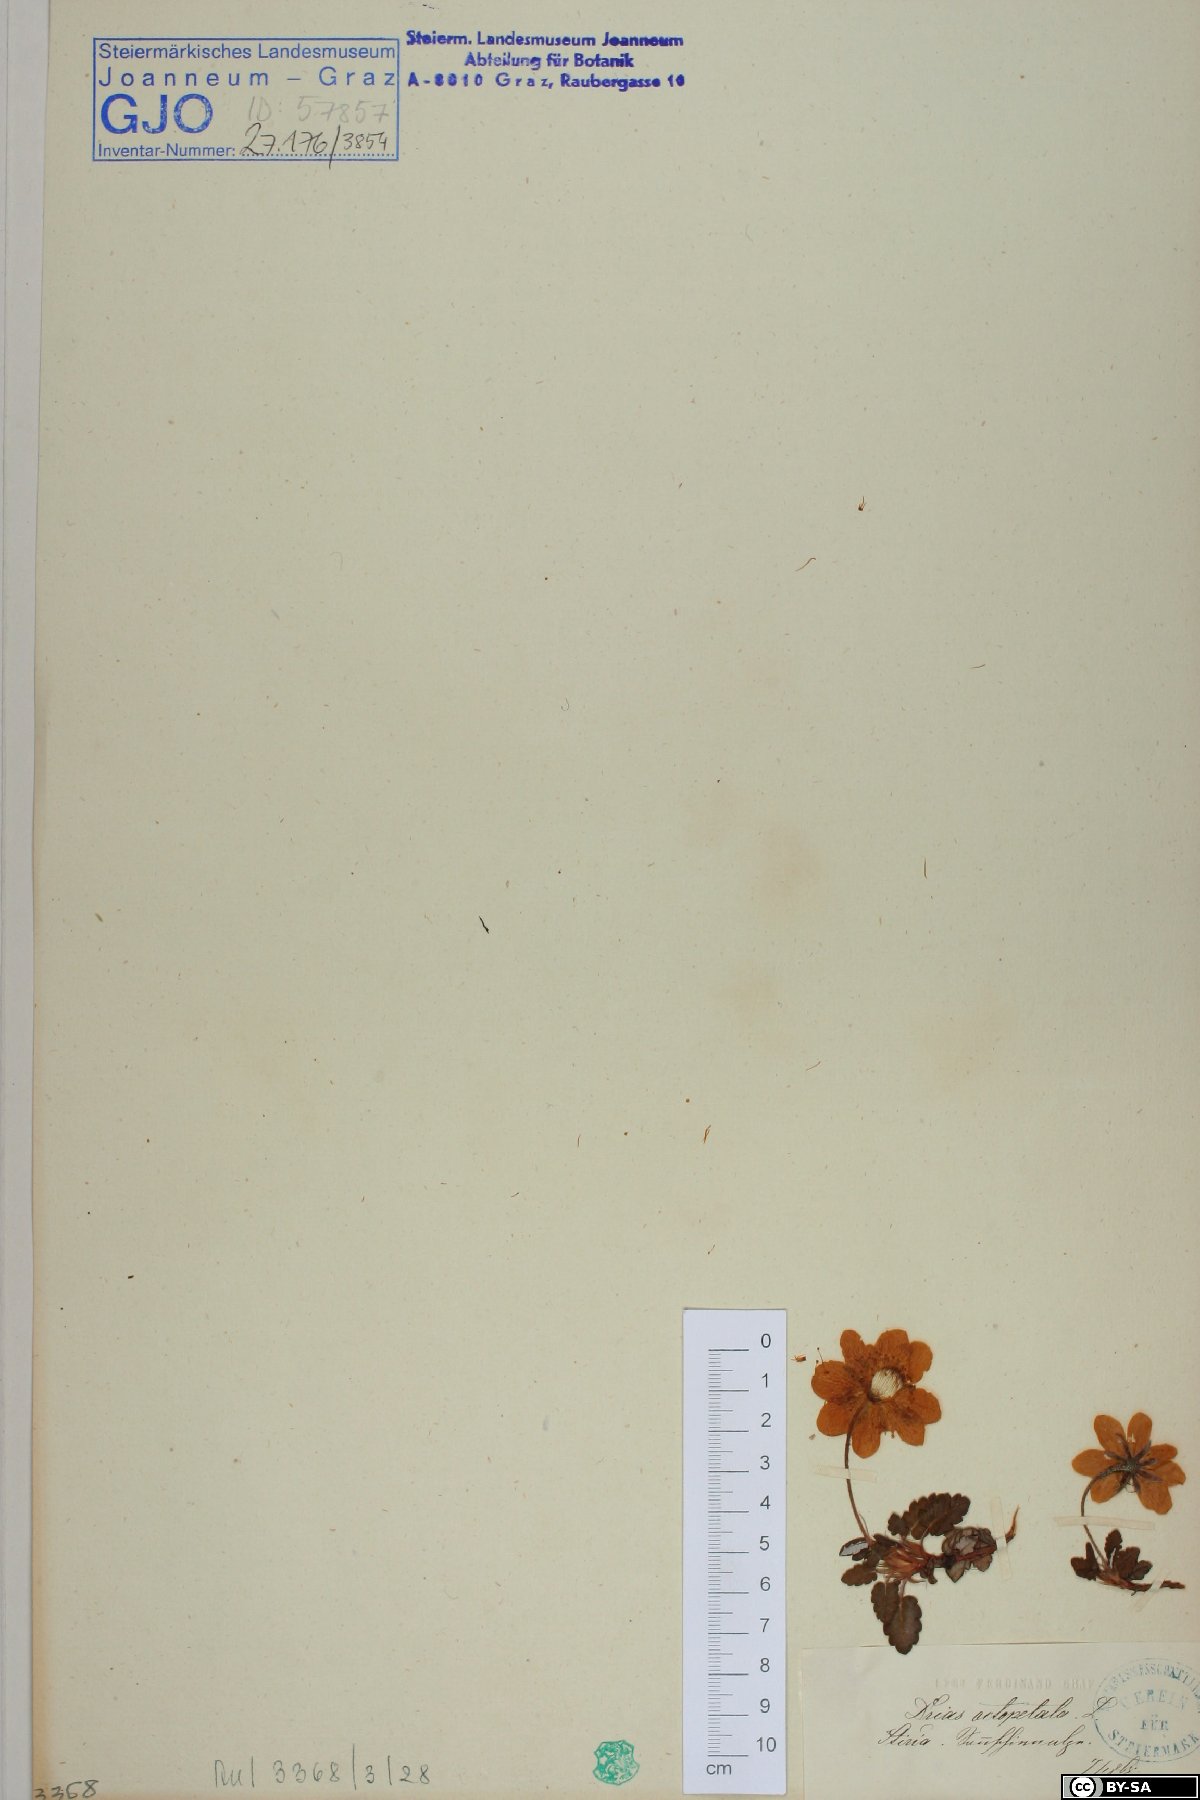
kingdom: Plantae
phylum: Tracheophyta
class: Magnoliopsida
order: Rosales
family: Rosaceae
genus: Dryas
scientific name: Dryas octopetala
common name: Eight-petal mountain-avens
